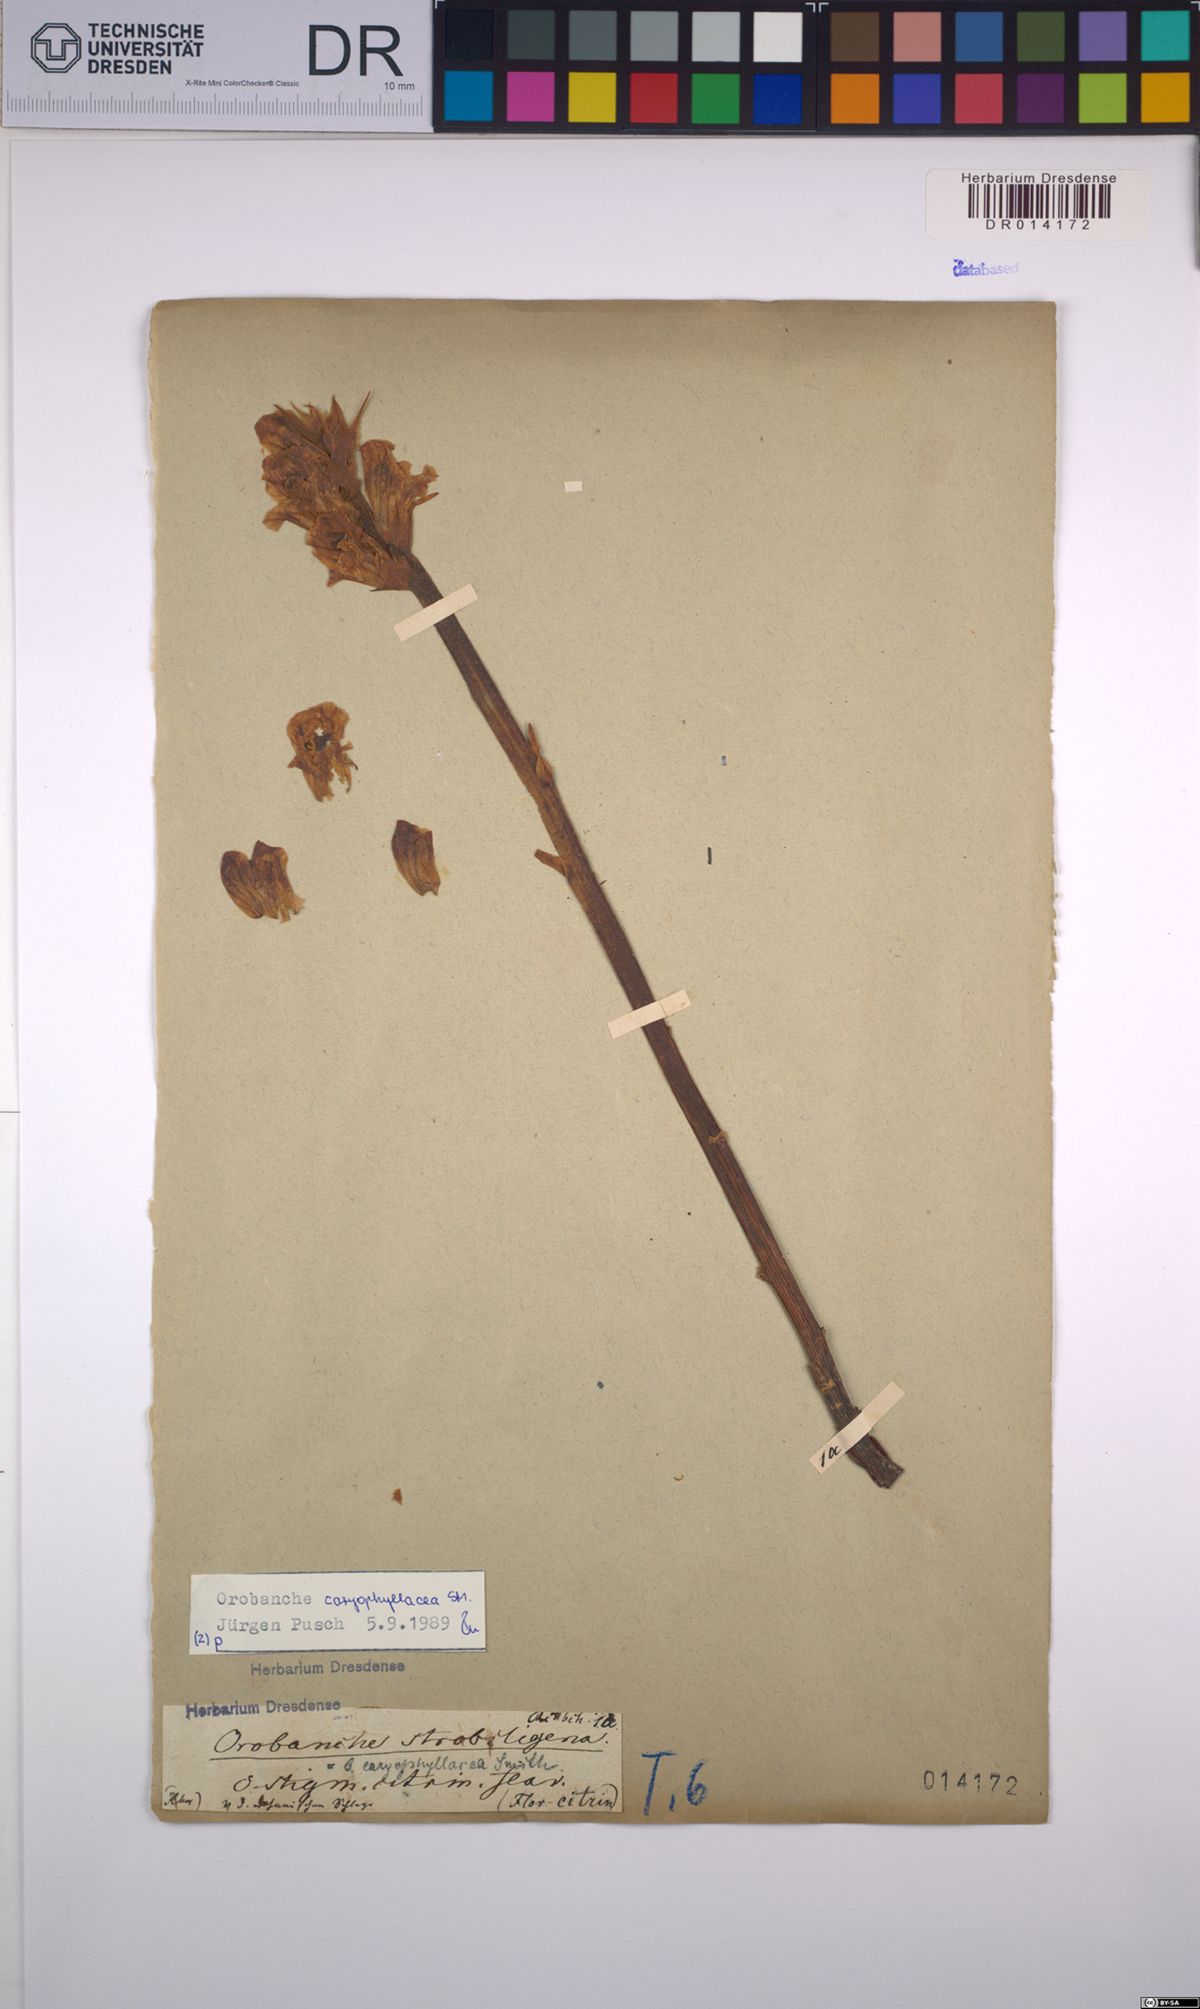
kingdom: Plantae
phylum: Tracheophyta
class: Magnoliopsida
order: Lamiales
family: Orobanchaceae
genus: Orobanche
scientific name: Orobanche caryophyllacea
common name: Bedstraw broomrape
